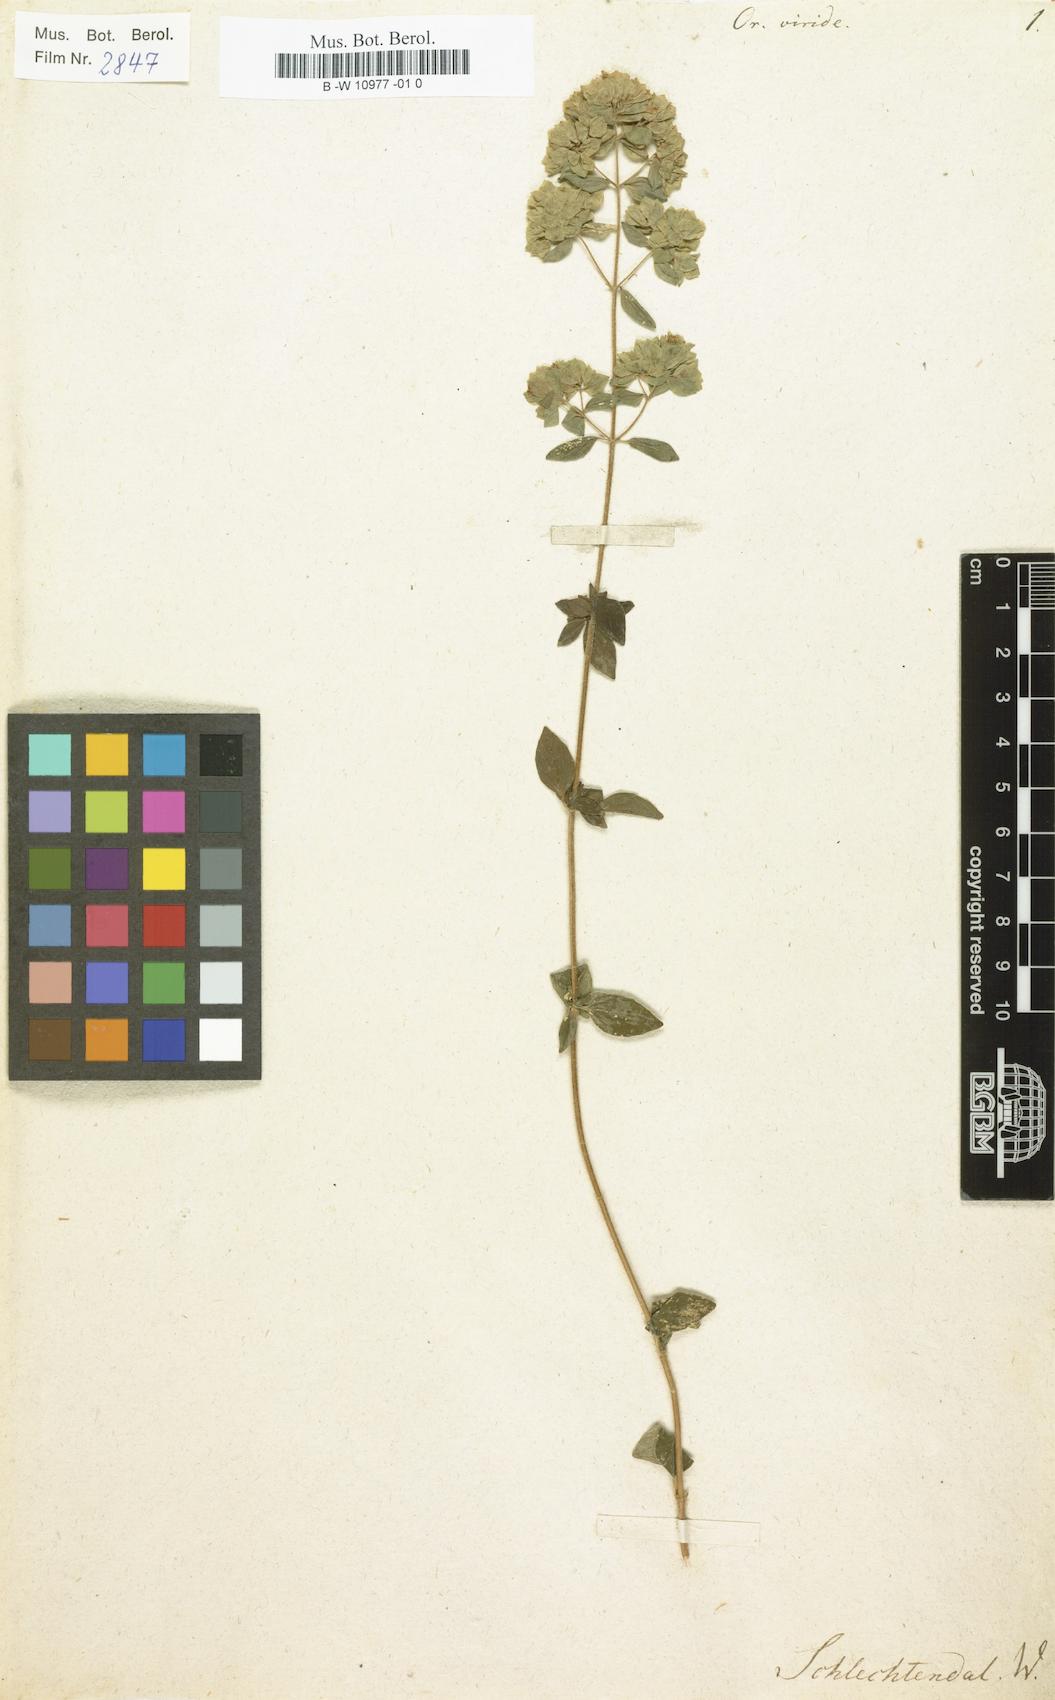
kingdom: Plantae
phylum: Tracheophyta
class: Magnoliopsida
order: Lamiales
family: Lamiaceae
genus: Origanum
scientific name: Origanum vulgare
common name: Wild marjoram
